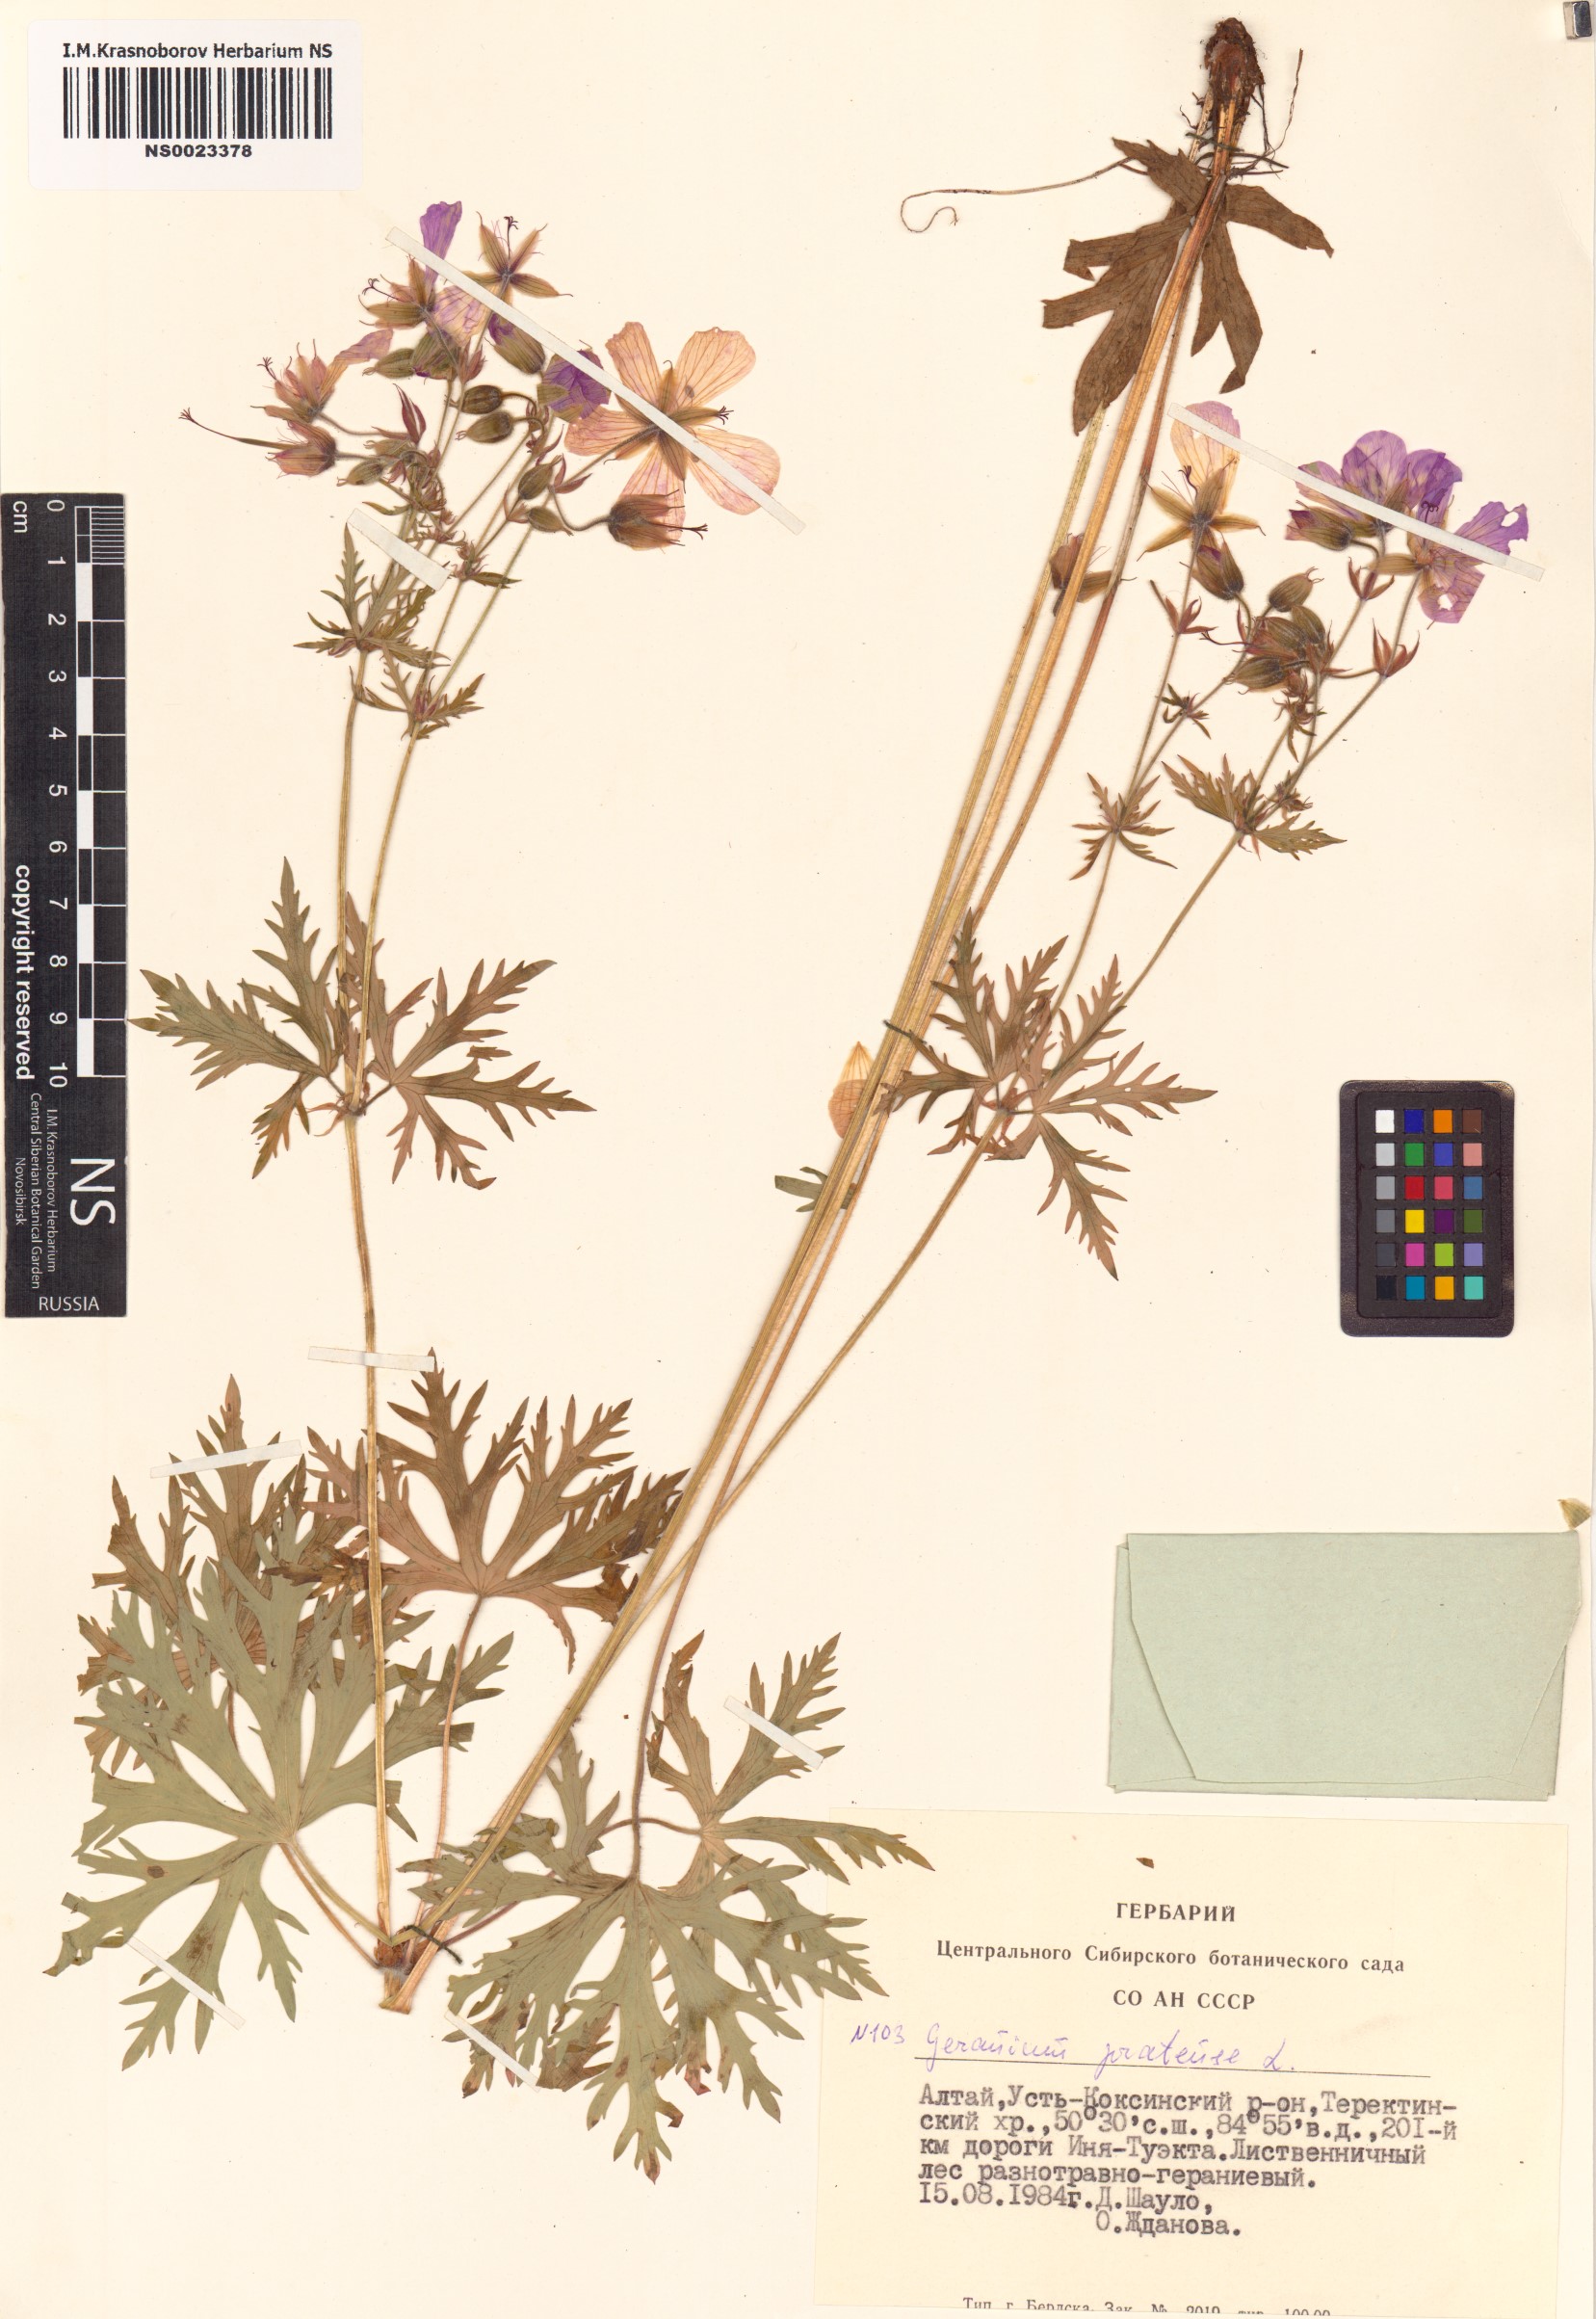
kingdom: Plantae
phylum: Tracheophyta
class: Magnoliopsida
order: Geraniales
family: Geraniaceae
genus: Geranium
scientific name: Geranium pratense
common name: Meadow crane's-bill
